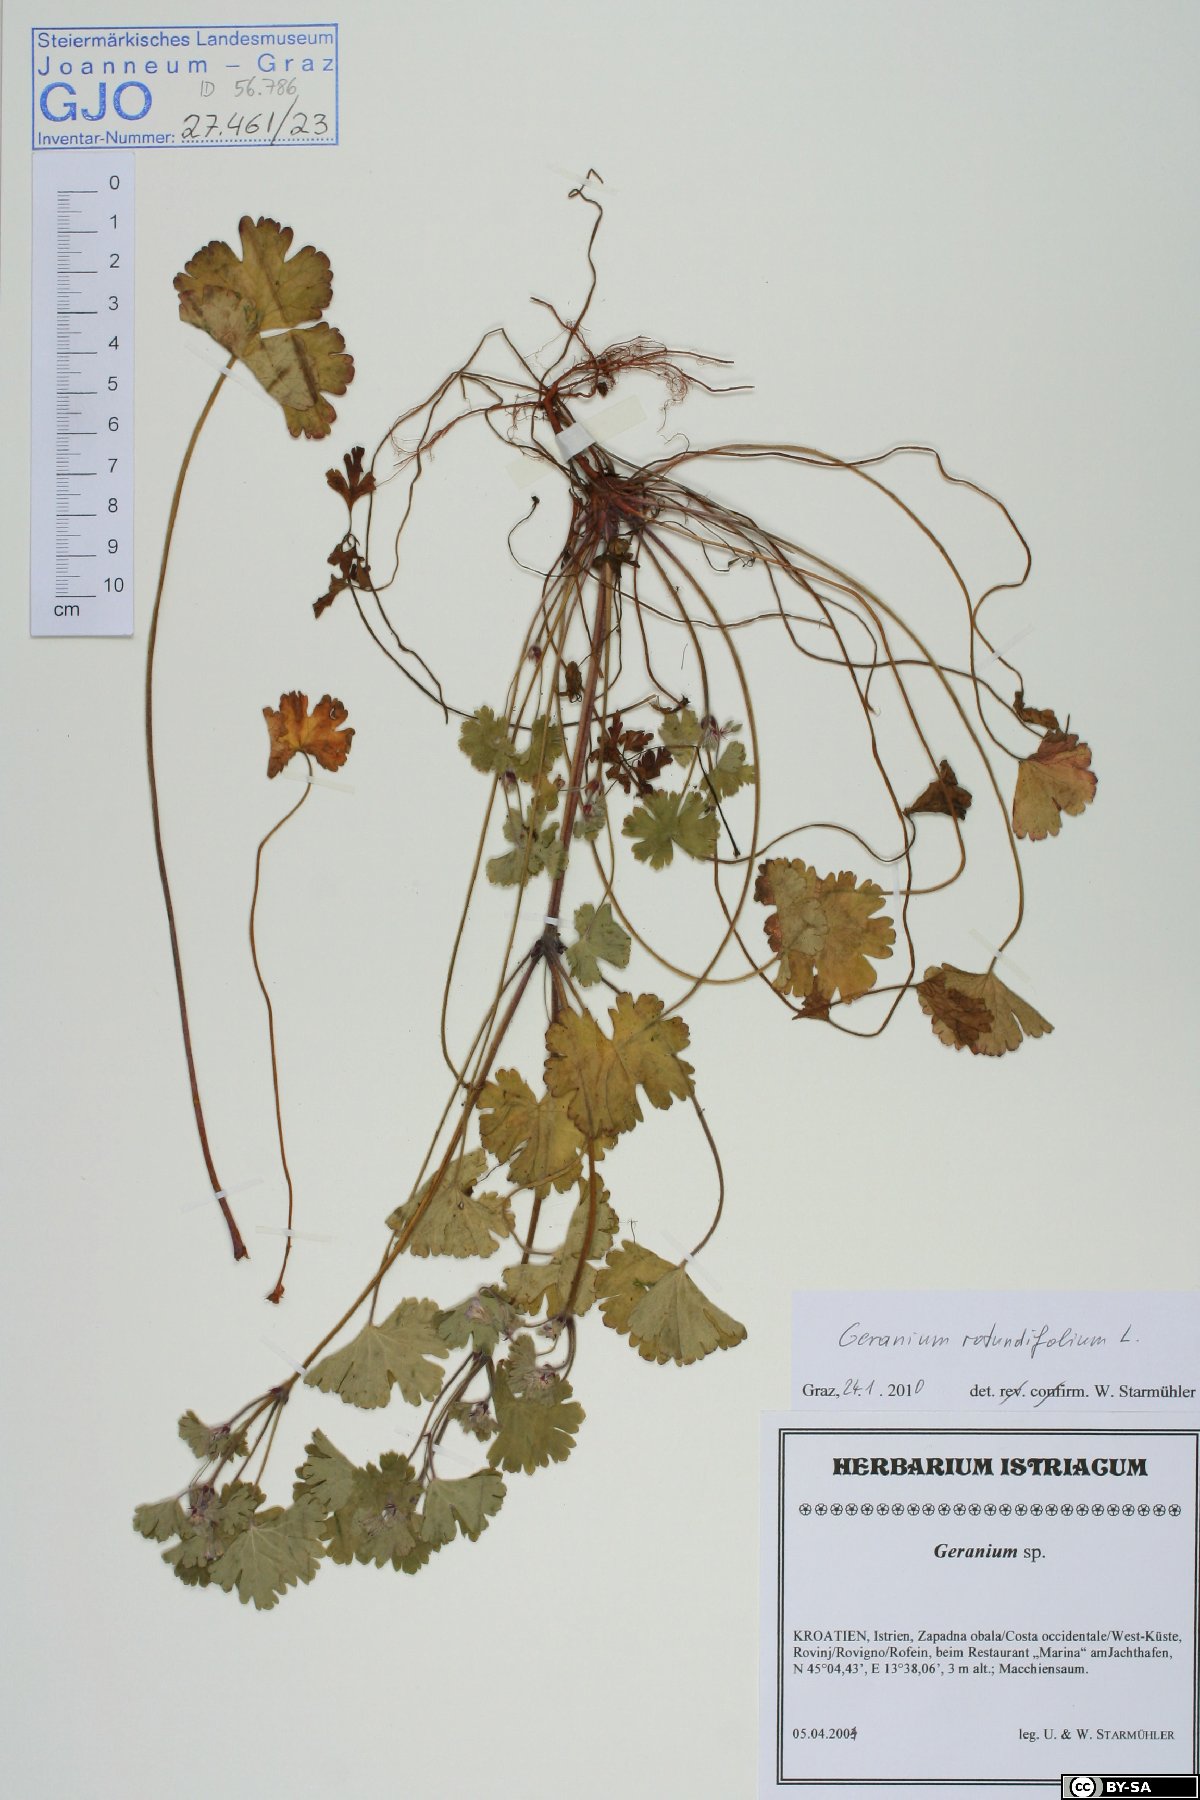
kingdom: Plantae
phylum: Tracheophyta
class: Magnoliopsida
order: Geraniales
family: Geraniaceae
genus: Geranium
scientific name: Geranium rotundifolium
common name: Round-leaved crane's-bill
